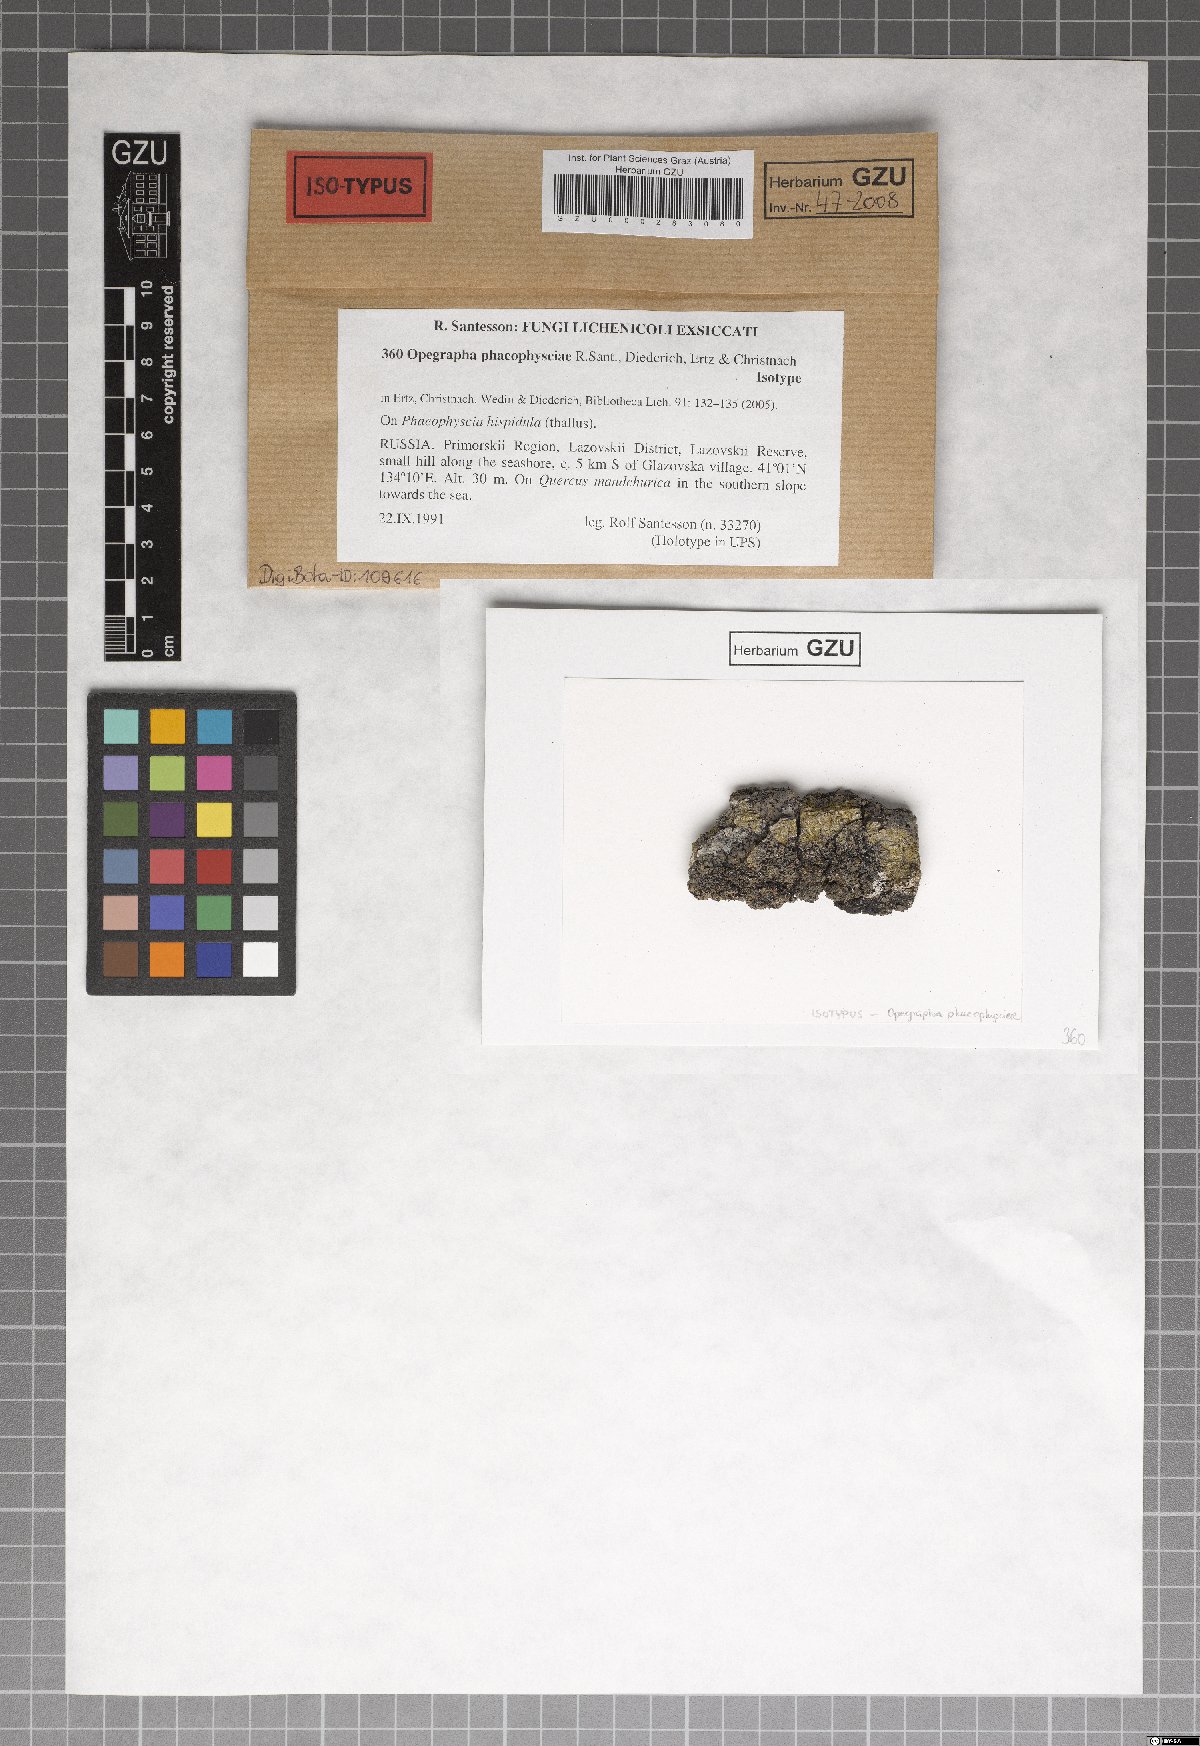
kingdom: Fungi
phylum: Ascomycota
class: Arthoniomycetes
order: Arthoniales
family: Opegraphaceae
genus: Opegrapha
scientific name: Opegrapha phaeophysciae
